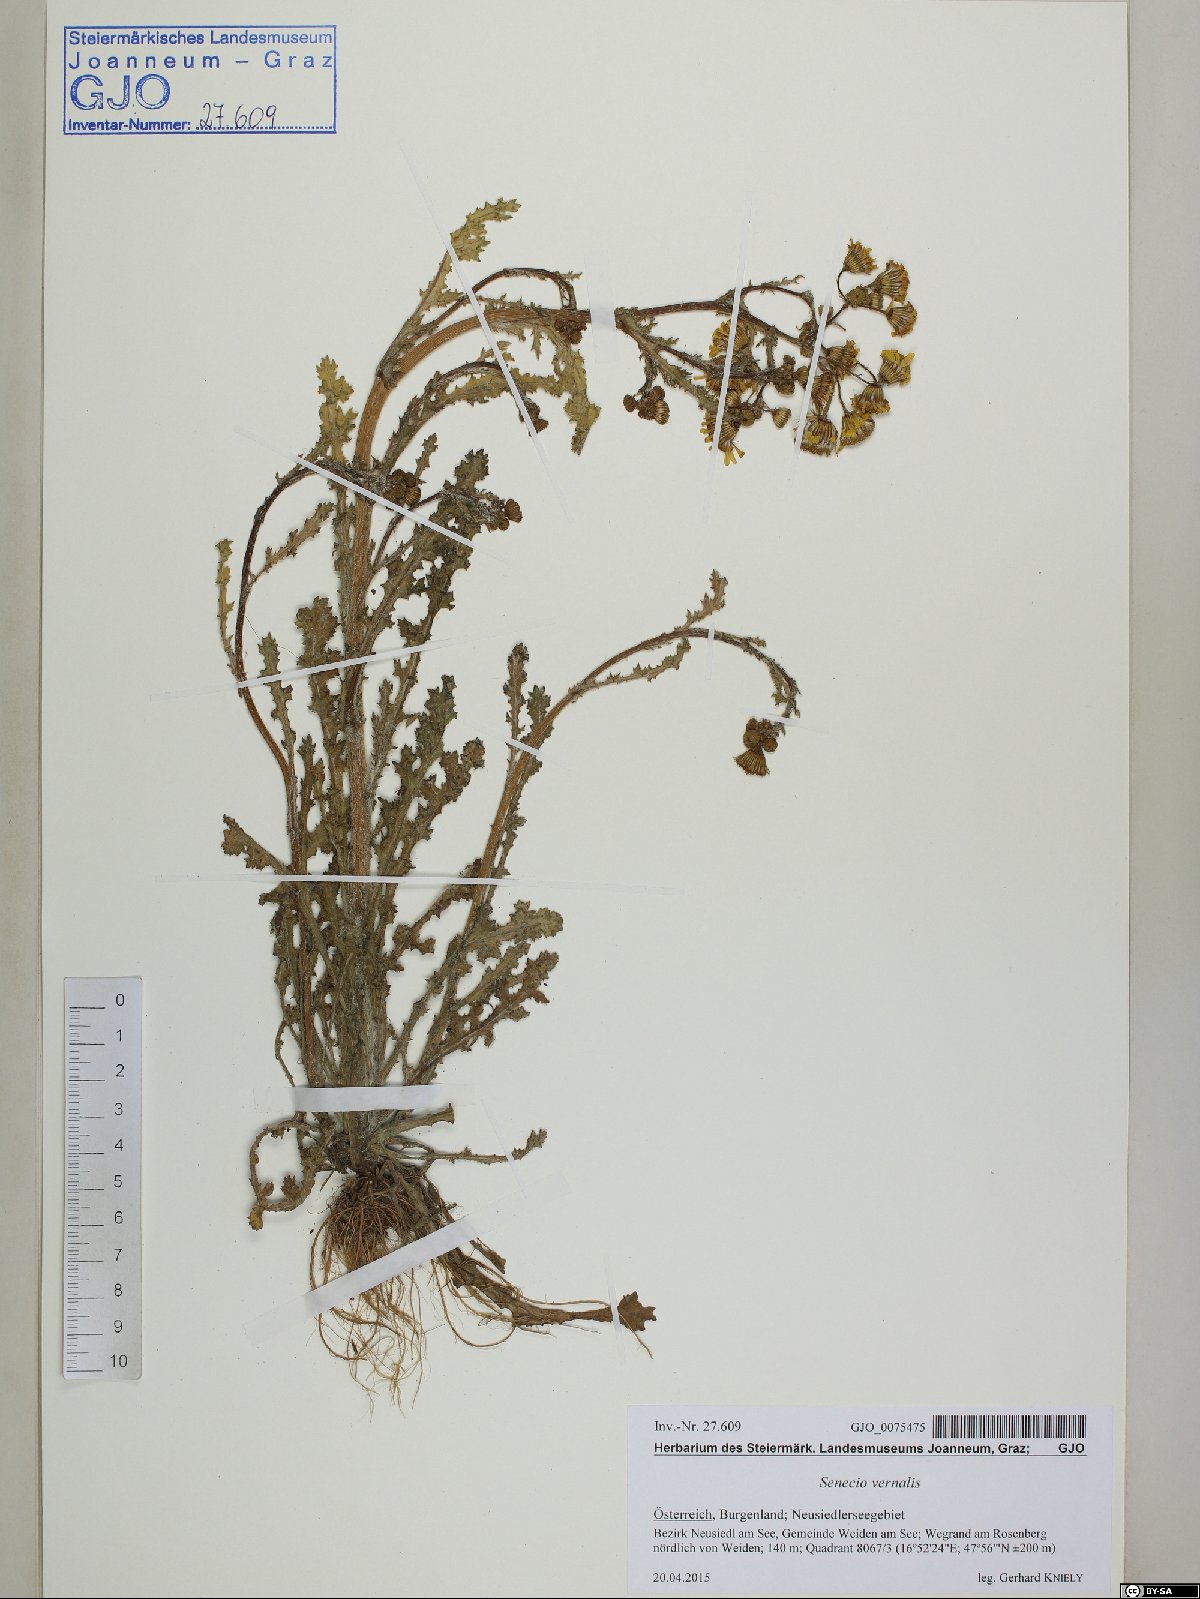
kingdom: Plantae
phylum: Tracheophyta
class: Magnoliopsida
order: Asterales
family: Asteraceae
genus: Senecio
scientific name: Senecio vernalis
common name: Eastern groundsel
